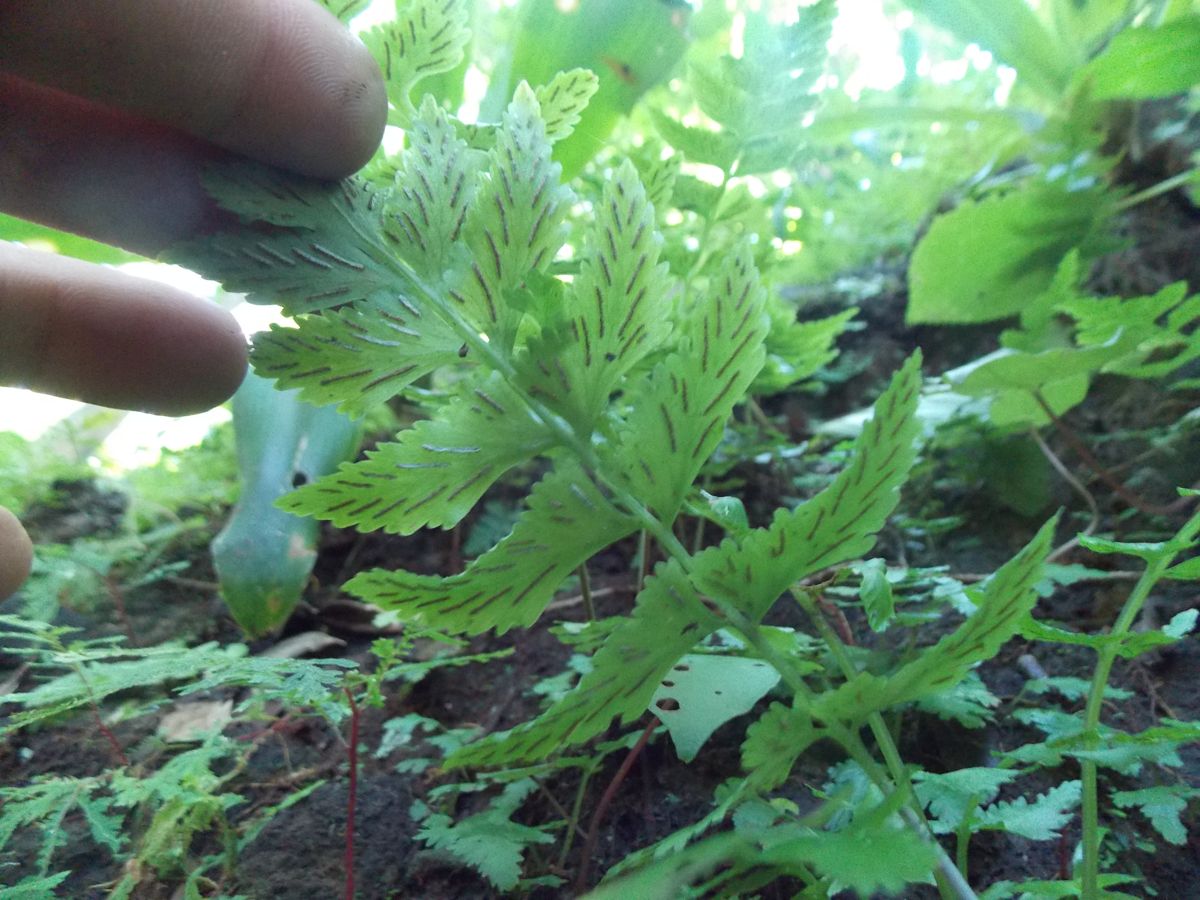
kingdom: Plantae
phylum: Tracheophyta
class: Polypodiopsida
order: Polypodiales
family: Aspleniaceae
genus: Hymenasplenium
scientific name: Hymenasplenium hoffmannii
